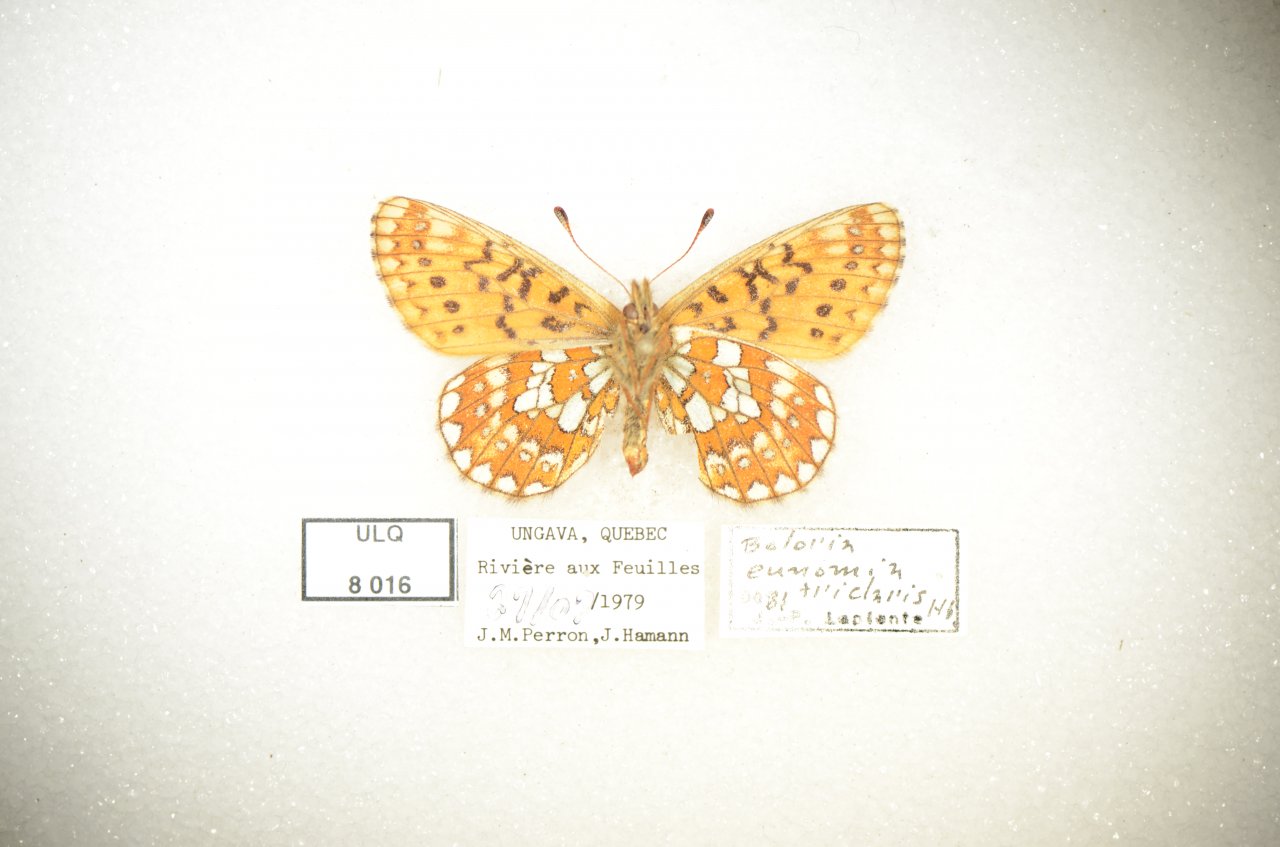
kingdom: Animalia
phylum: Arthropoda
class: Insecta
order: Lepidoptera
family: Nymphalidae
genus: Boloria
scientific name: Boloria eunomia
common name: Bog Fritillary
